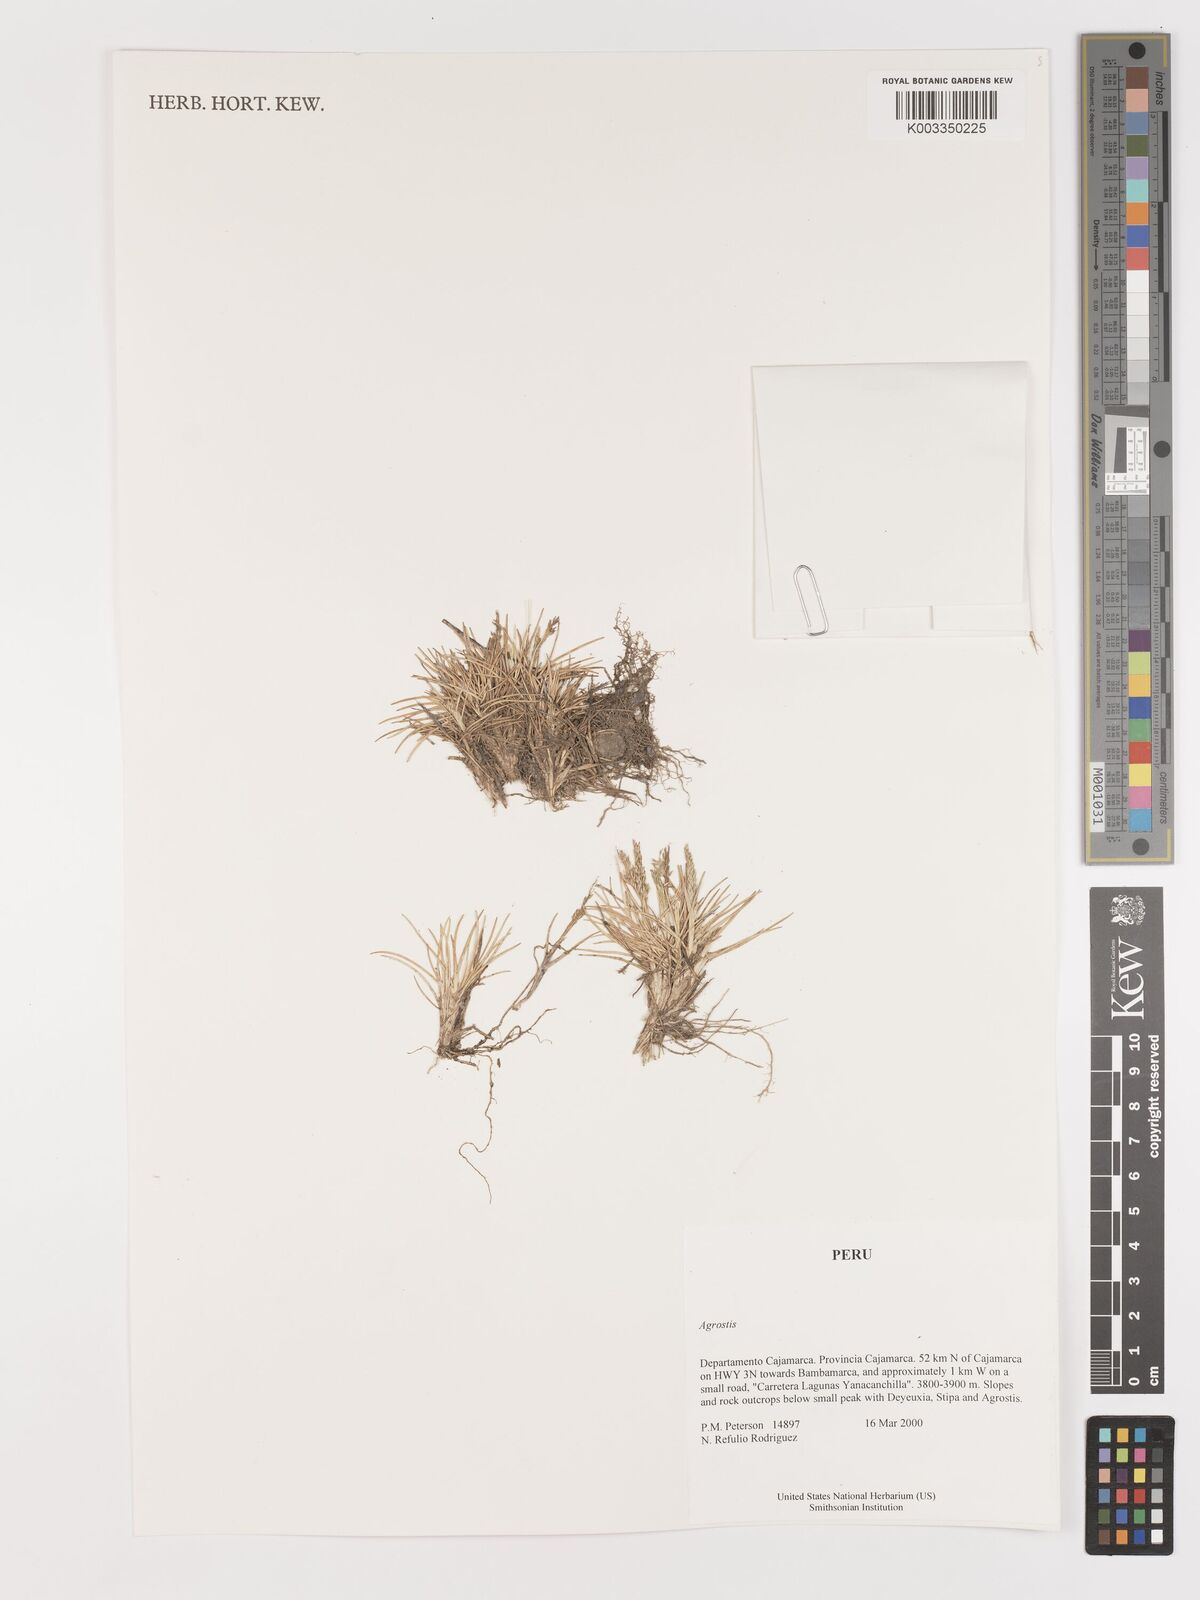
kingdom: Plantae
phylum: Tracheophyta
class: Liliopsida
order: Poales
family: Poaceae
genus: Agrostis
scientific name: Agrostis
